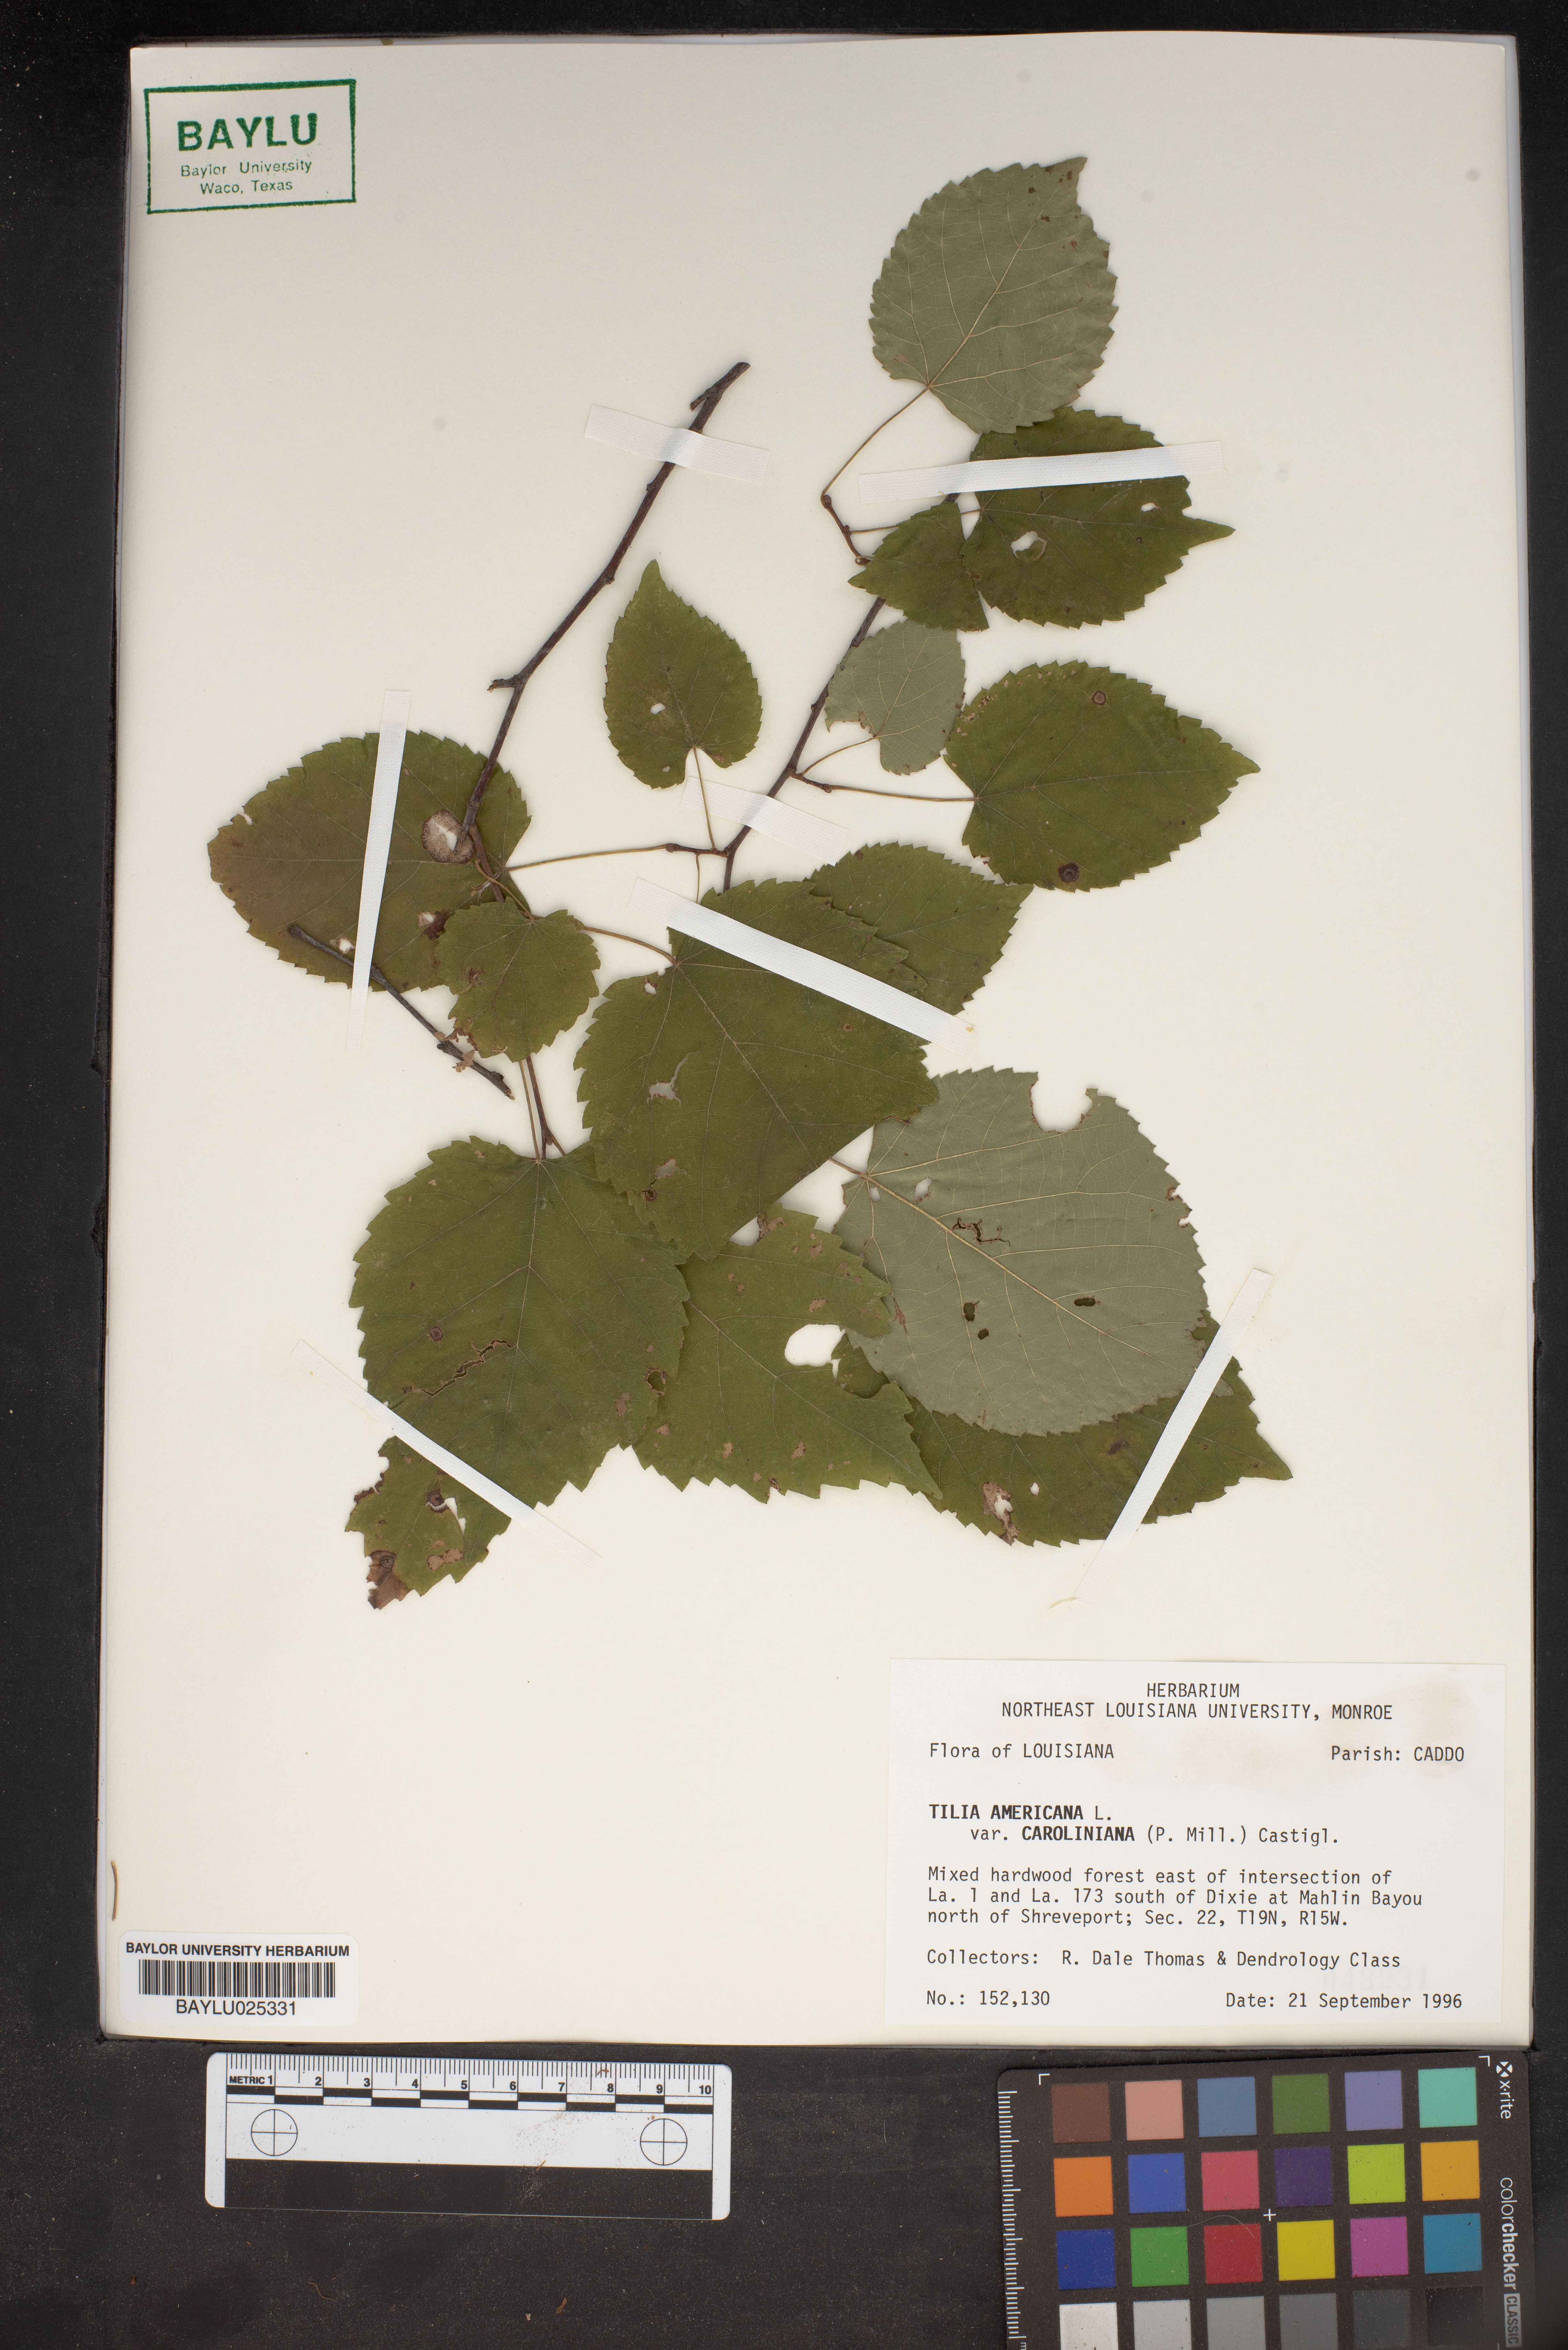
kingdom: Plantae
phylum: Tracheophyta
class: Magnoliopsida
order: Malvales
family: Malvaceae
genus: Tilia
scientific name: Tilia americana
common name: Basswood
